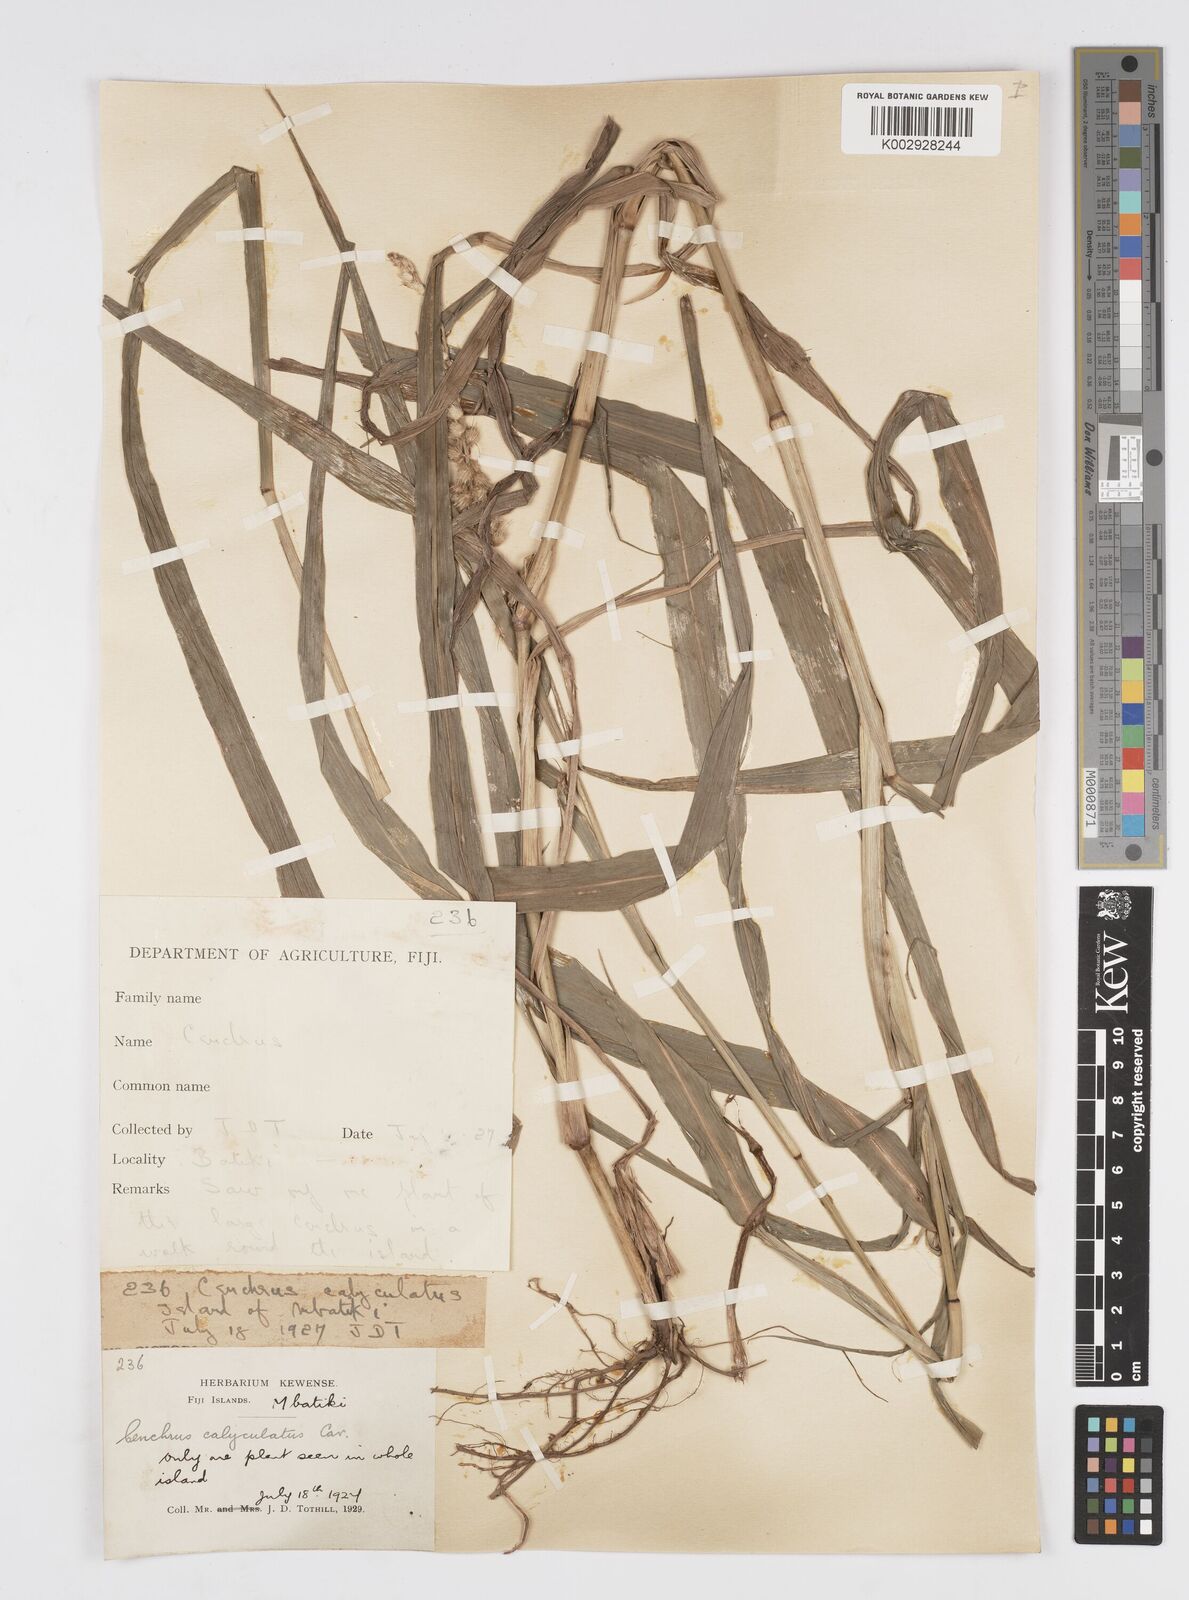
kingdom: Plantae
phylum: Tracheophyta
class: Liliopsida
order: Poales
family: Poaceae
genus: Cenchrus
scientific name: Cenchrus caliculatus
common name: Large bur grass
